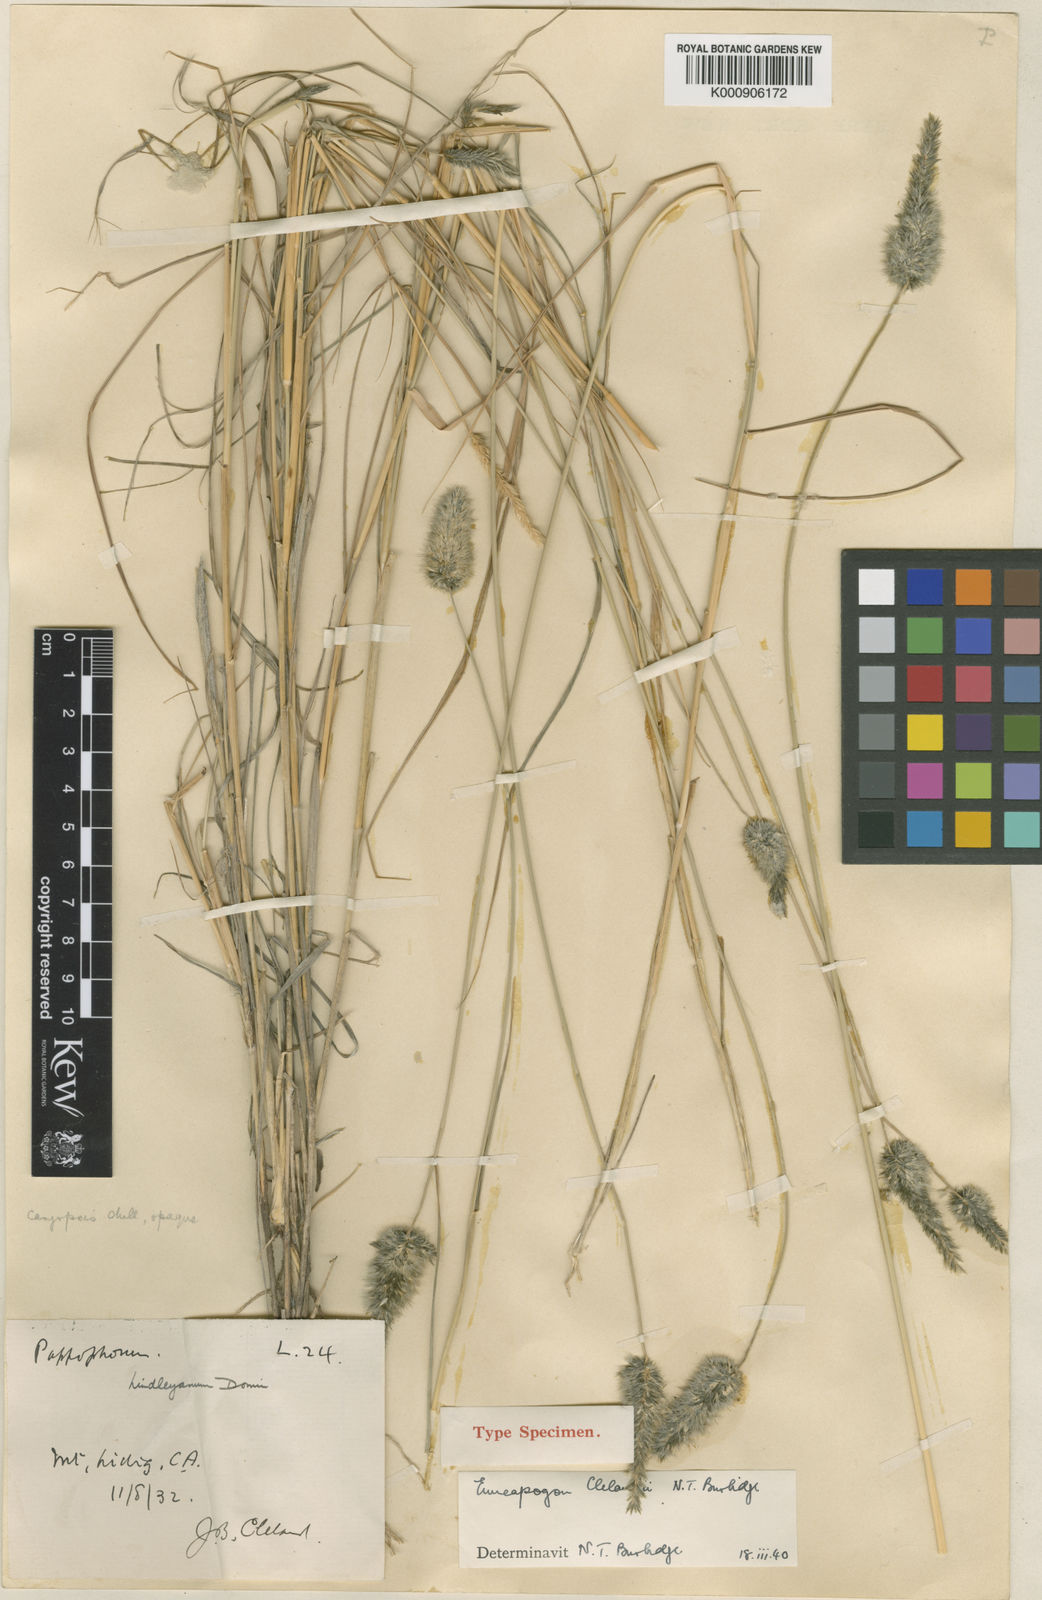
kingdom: Plantae
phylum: Tracheophyta
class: Liliopsida
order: Poales
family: Poaceae
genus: Enneapogon
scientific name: Enneapogon robustissimus
